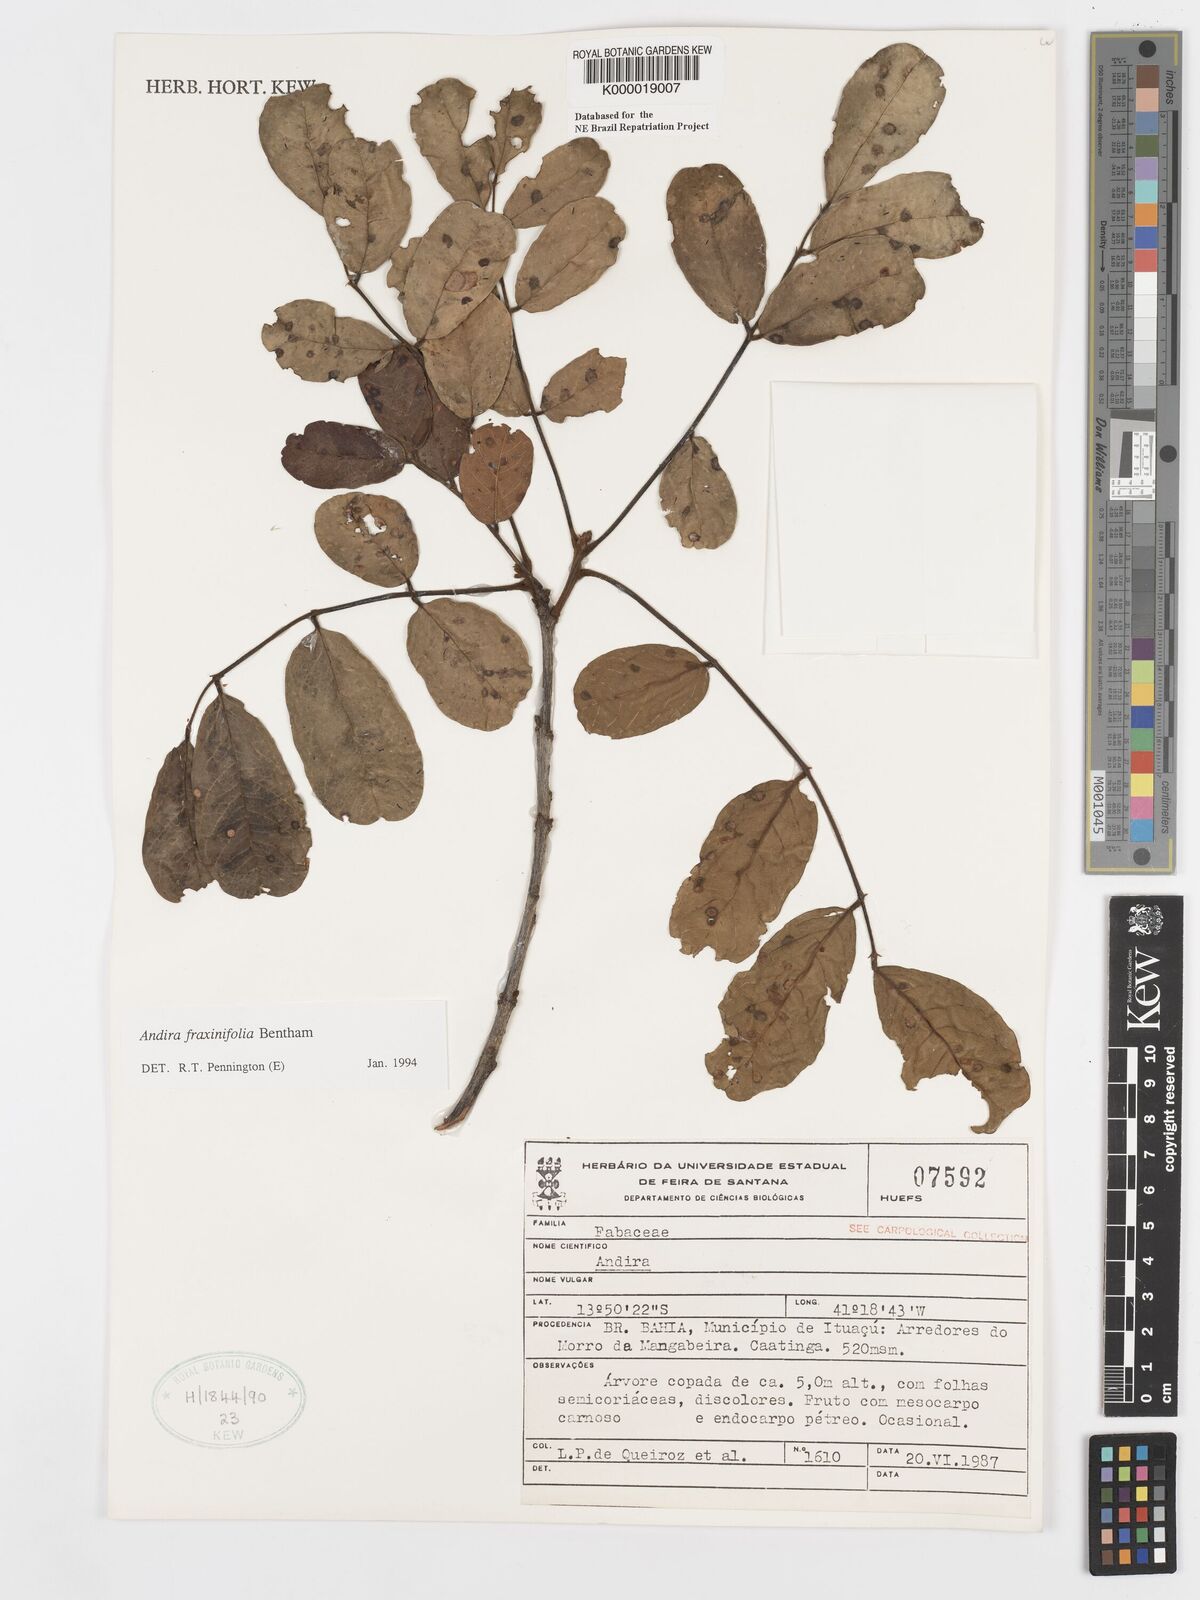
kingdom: Plantae
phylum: Tracheophyta
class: Magnoliopsida
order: Fabales
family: Fabaceae
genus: Andira
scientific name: Andira fraxinifolia
